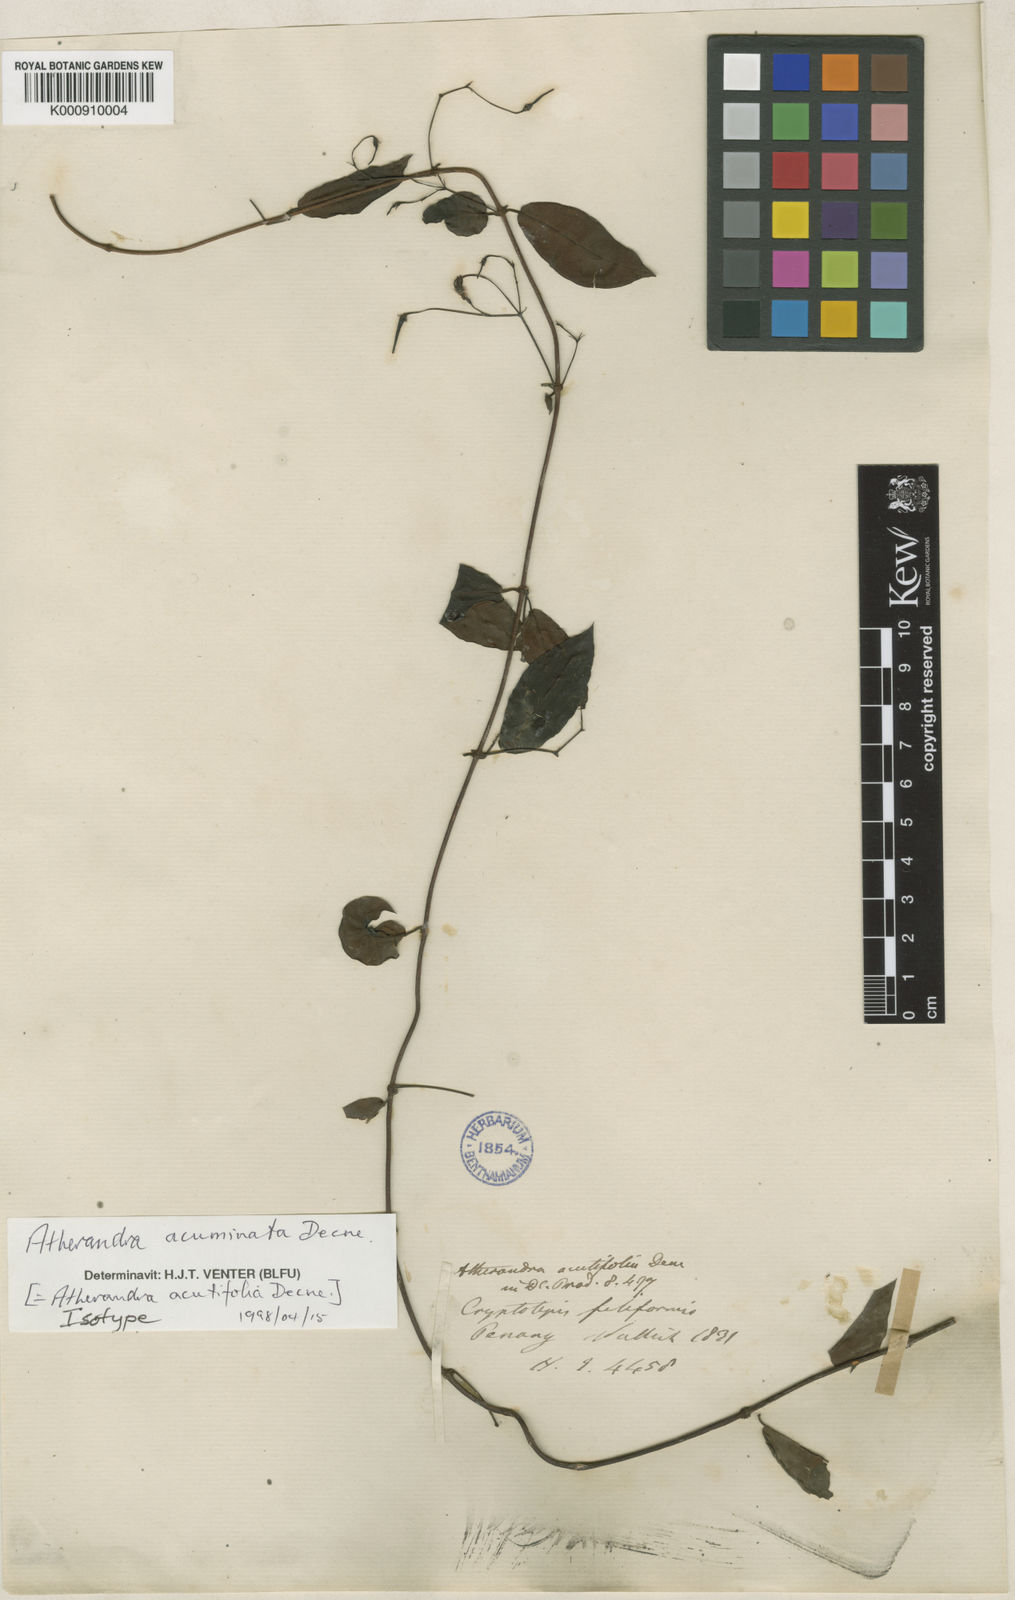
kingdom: Plantae
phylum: Tracheophyta
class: Magnoliopsida
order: Gentianales
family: Apocynaceae
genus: Atherandra
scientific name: Atherandra acutifolia
